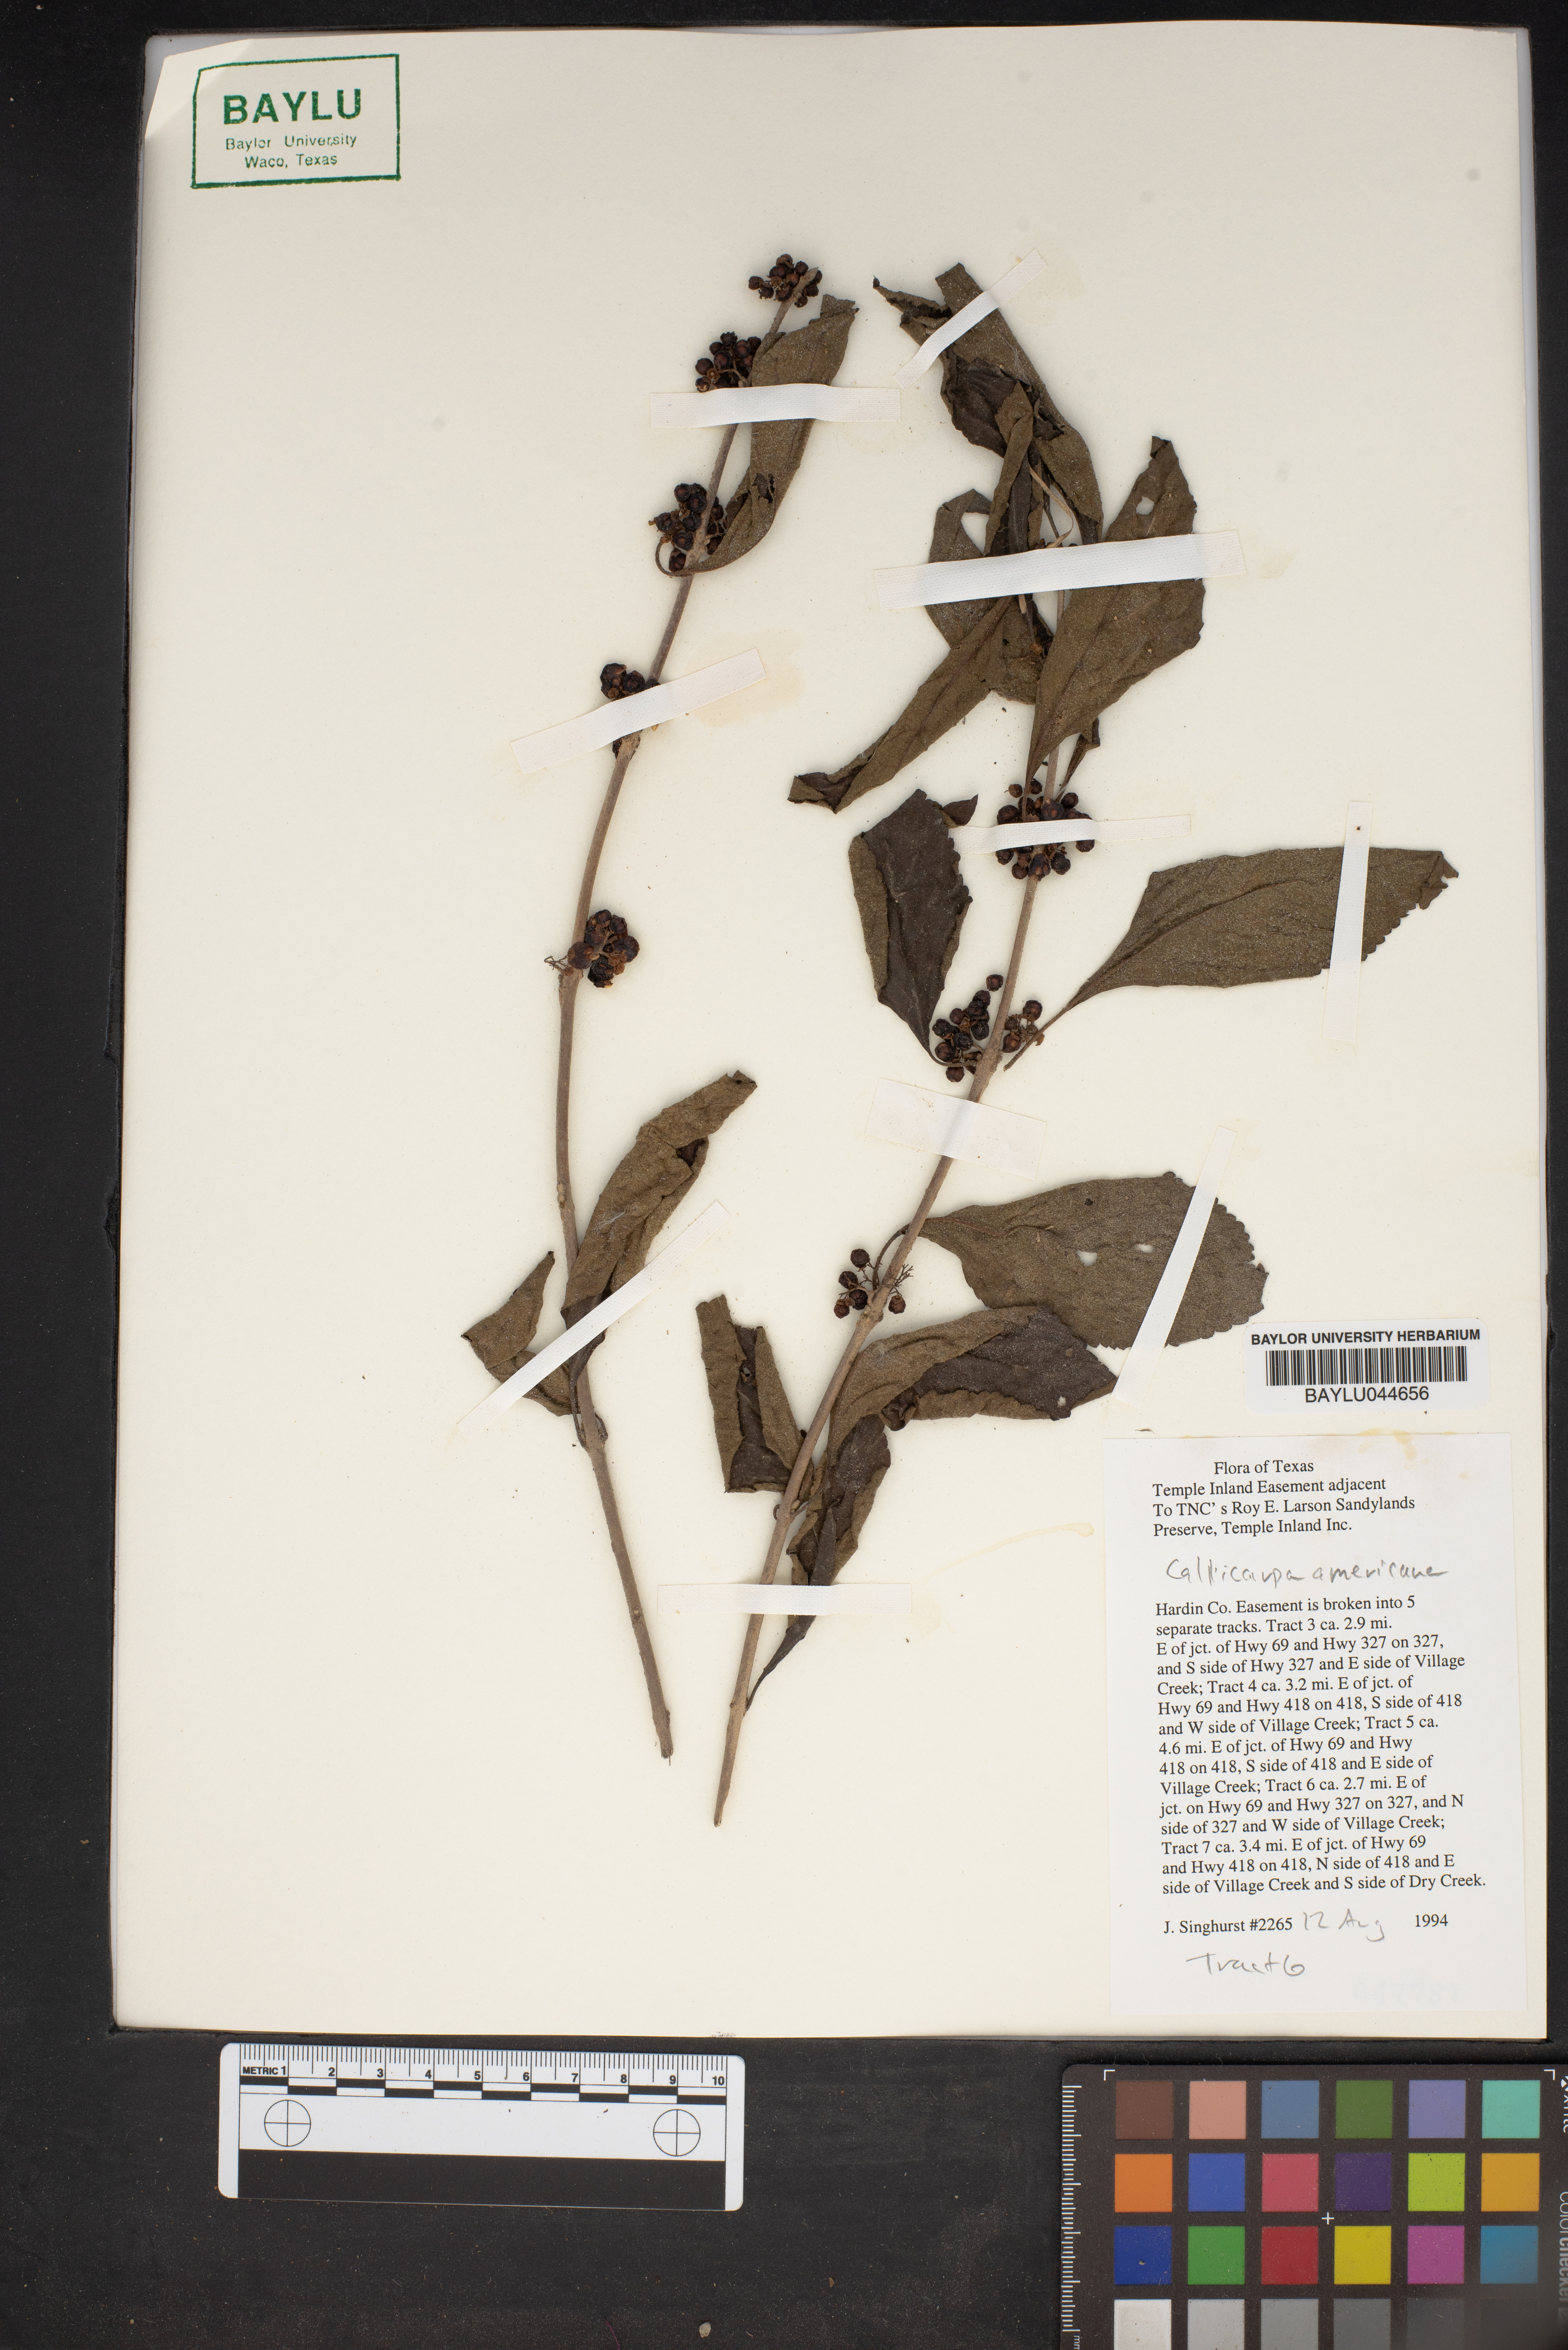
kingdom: Plantae
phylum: Tracheophyta
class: Magnoliopsida
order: Lamiales
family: Lamiaceae
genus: Callicarpa
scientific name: Callicarpa americana
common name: American beautyberry
